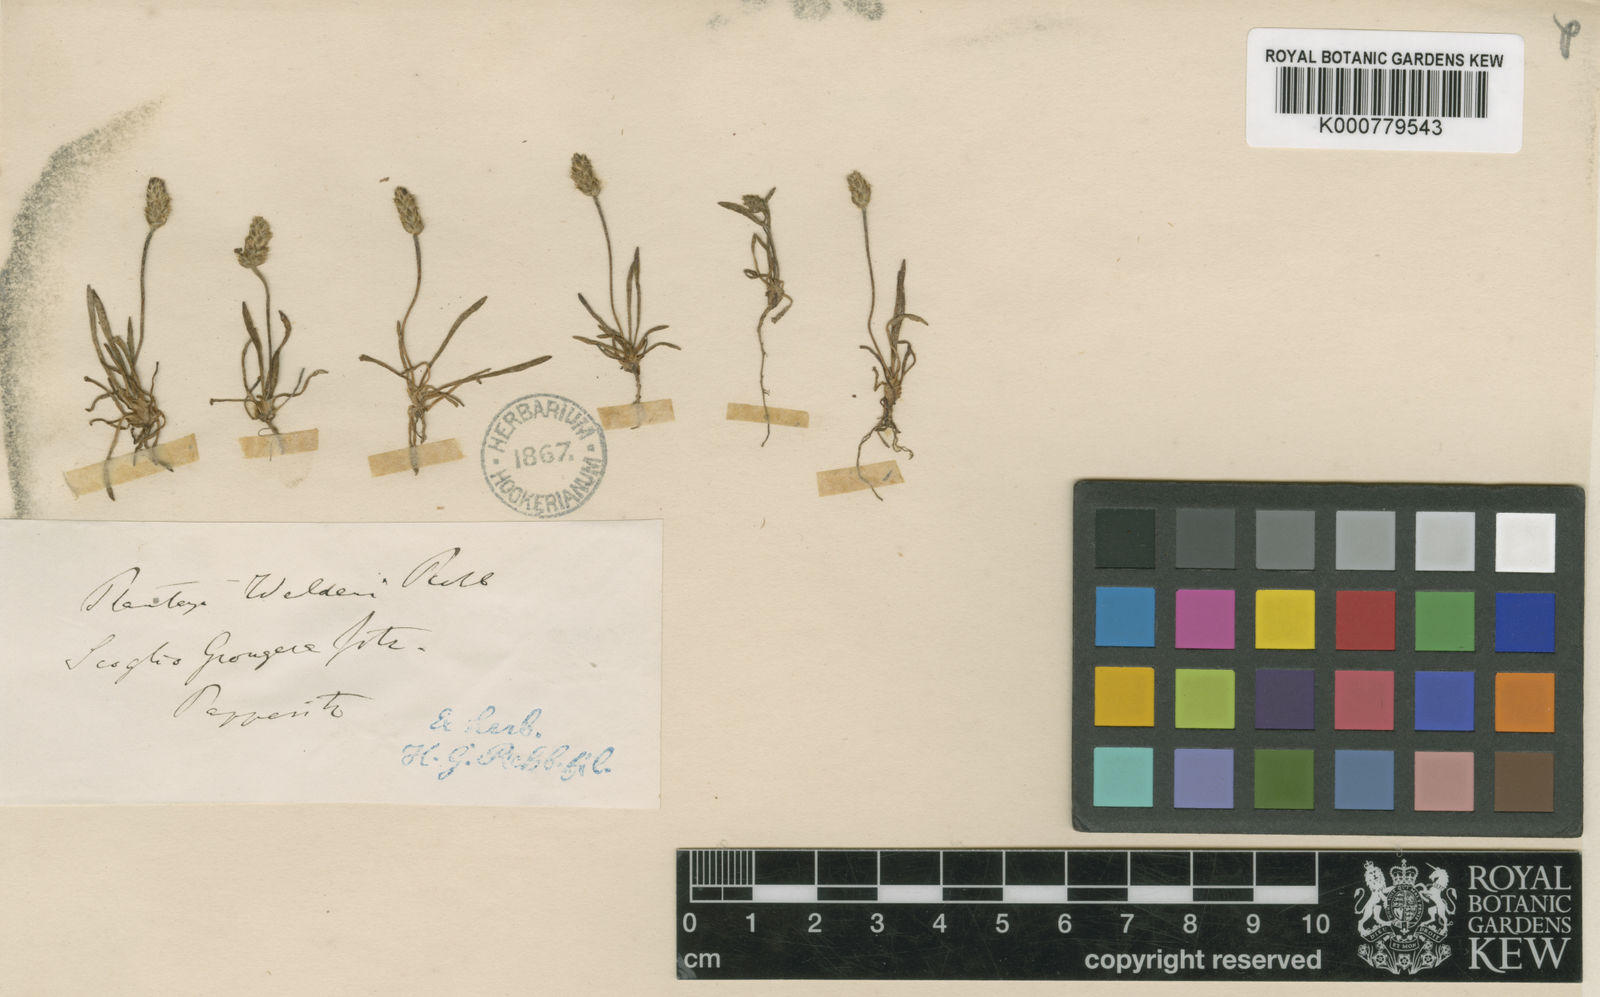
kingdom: Plantae
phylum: Tracheophyta
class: Magnoliopsida
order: Lamiales
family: Plantaginaceae
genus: Plantago
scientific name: Plantago coronopus
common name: Buck's-horn plantain
